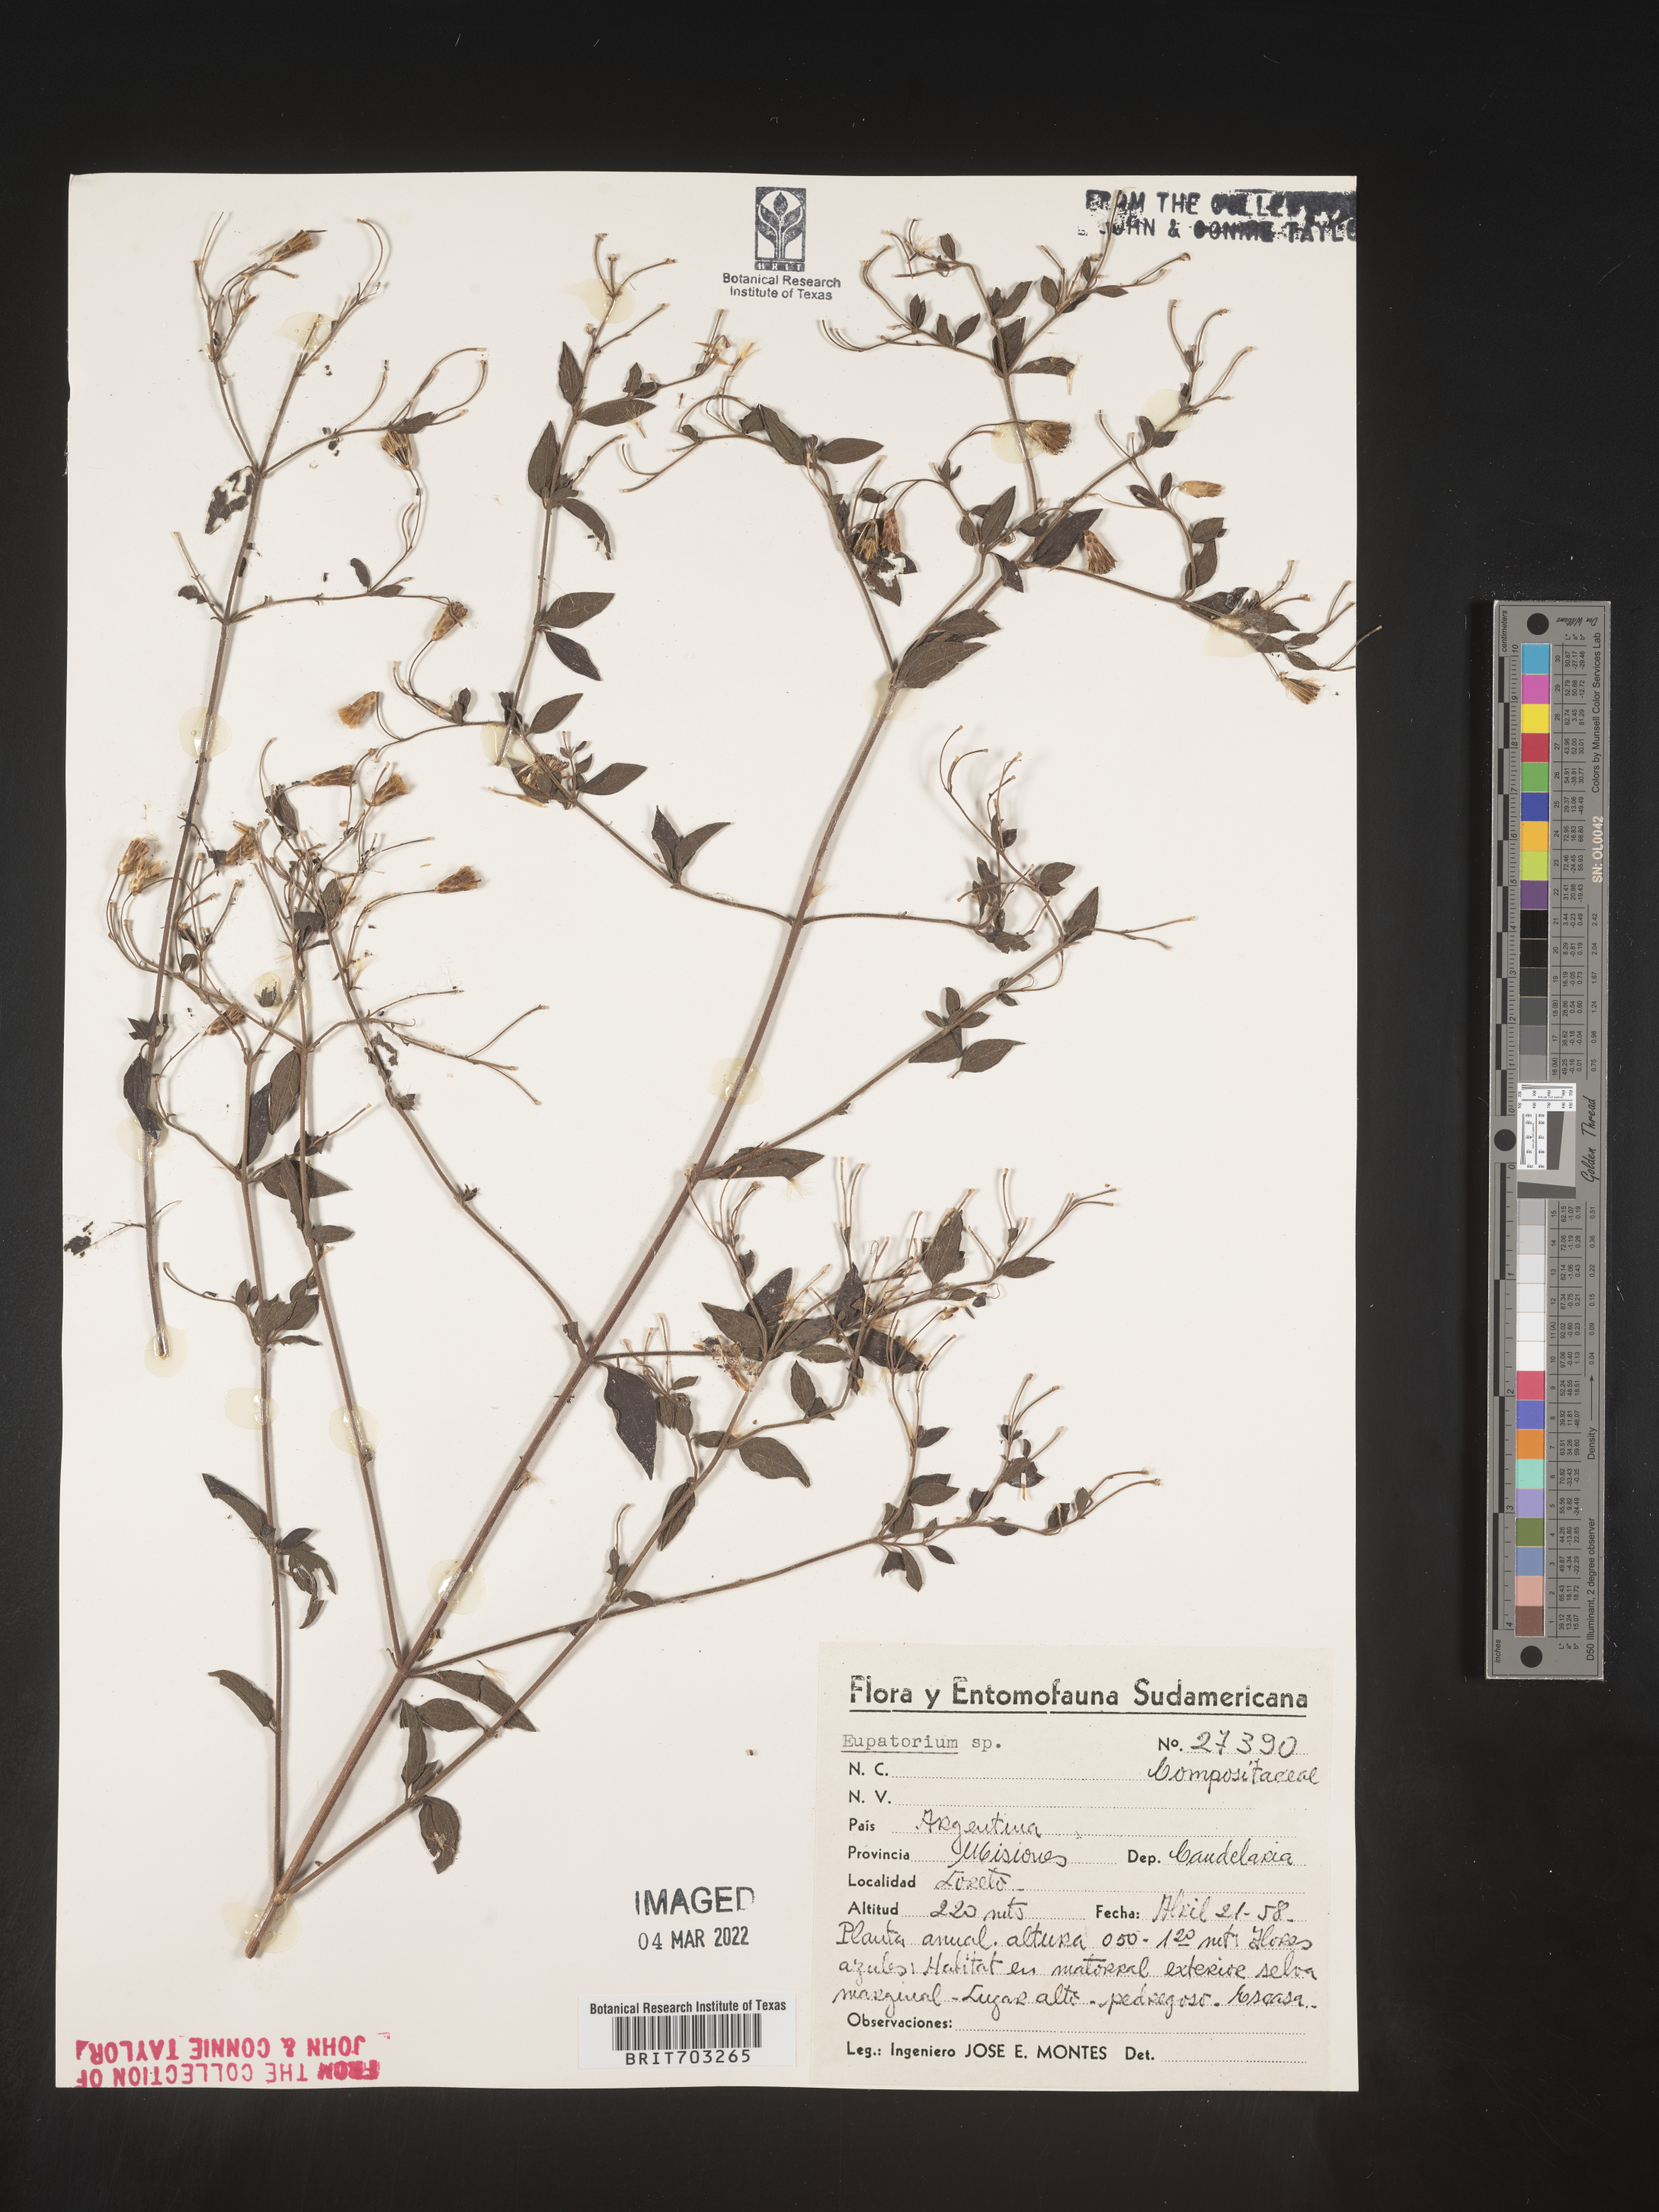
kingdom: Plantae
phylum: Tracheophyta
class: Magnoliopsida
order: Asterales
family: Asteraceae
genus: Eupatorium
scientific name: Eupatorium
